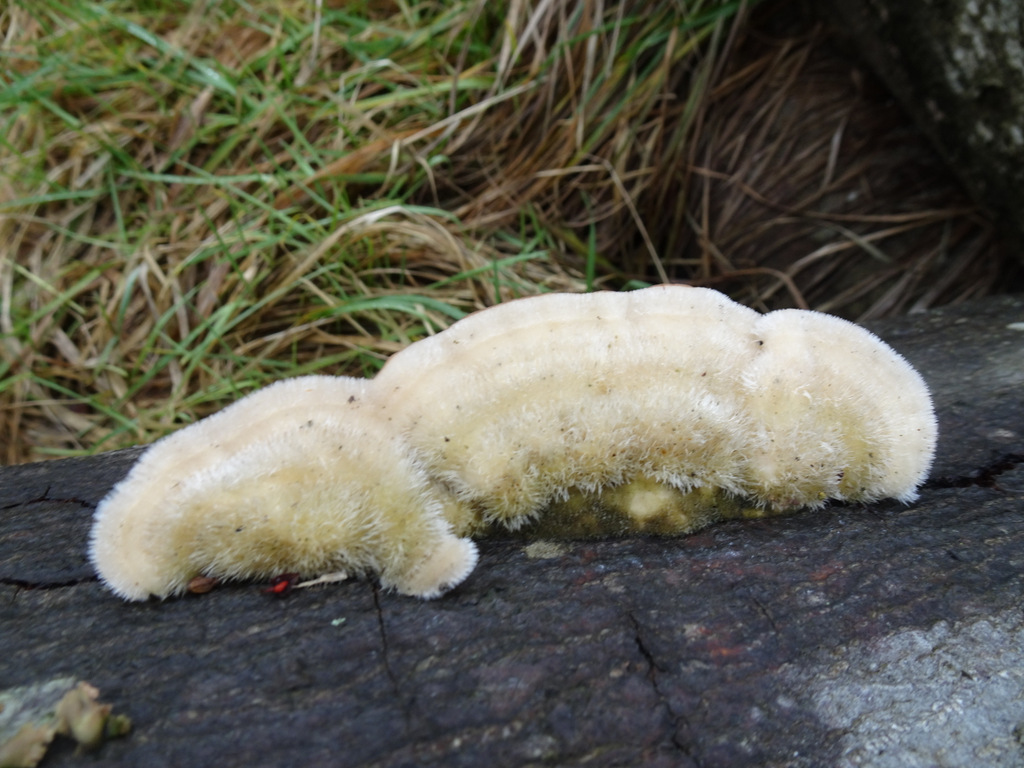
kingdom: Fungi
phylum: Basidiomycota
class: Agaricomycetes
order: Polyporales
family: Polyporaceae
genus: Trametes
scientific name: Trametes hirsuta
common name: håret læderporesvamp
